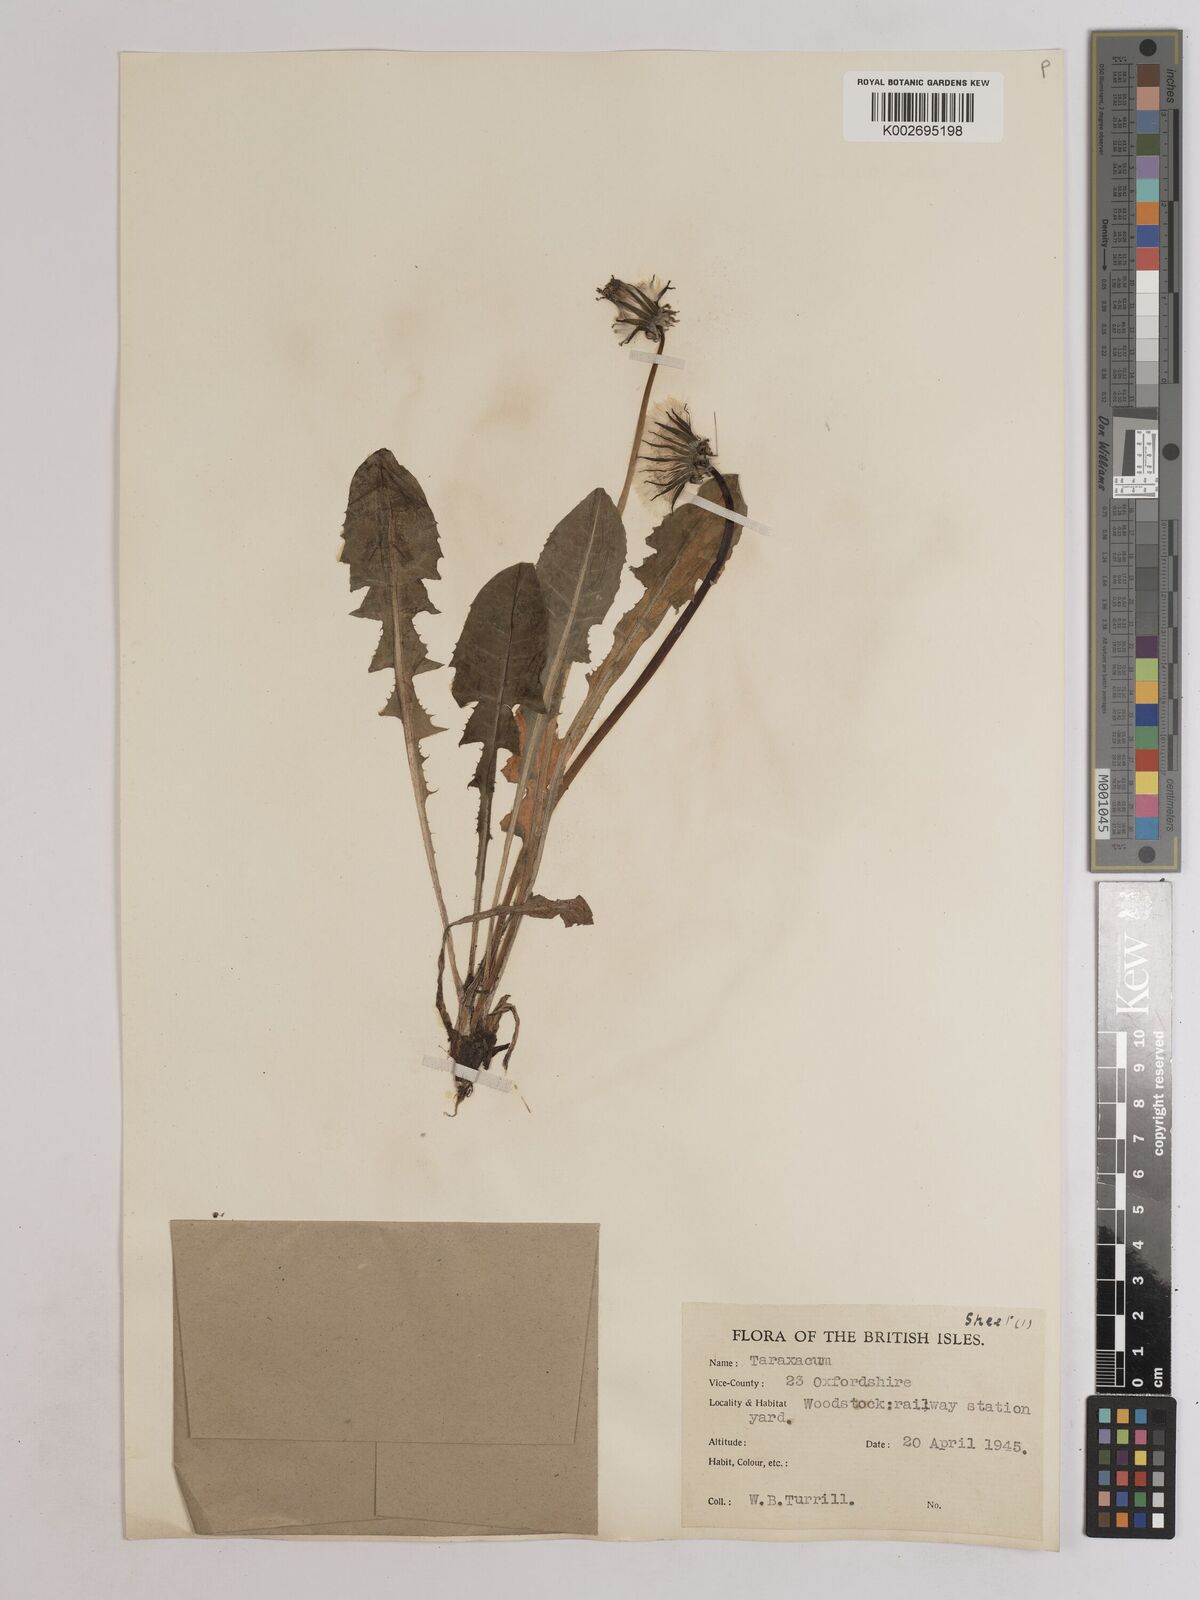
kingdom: Plantae
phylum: Tracheophyta
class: Magnoliopsida
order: Asterales
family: Asteraceae
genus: Taraxacum
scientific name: Taraxacum officinale
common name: Common dandelion
